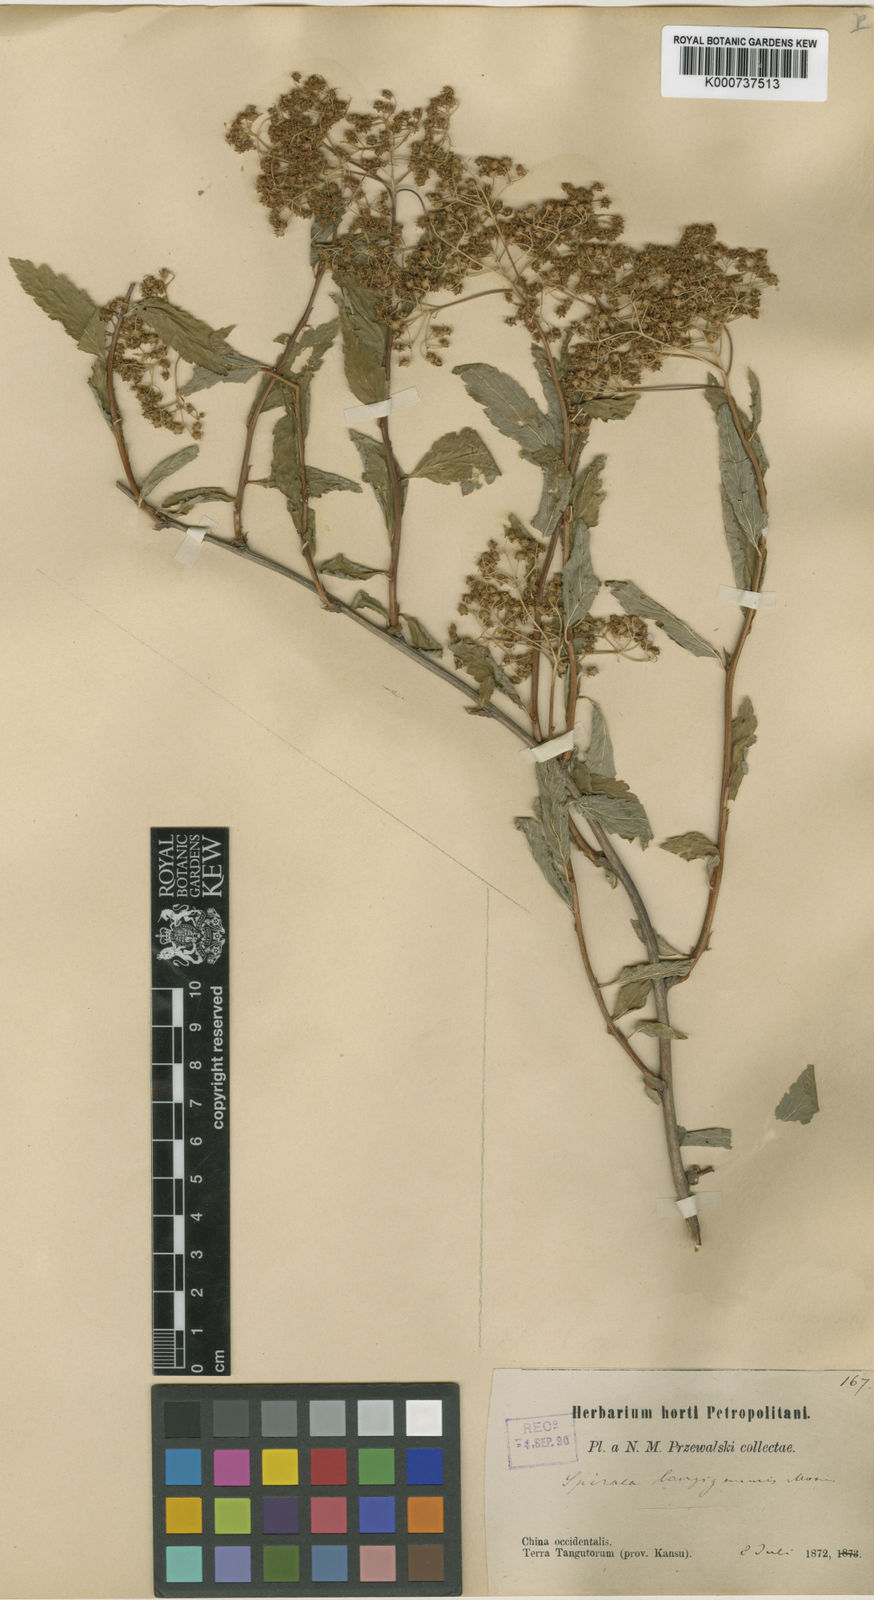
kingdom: Plantae
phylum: Tracheophyta
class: Magnoliopsida
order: Rosales
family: Rosaceae
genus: Spiraea
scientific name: Spiraea longigemmis
